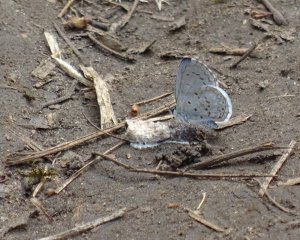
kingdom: Animalia
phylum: Arthropoda
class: Insecta
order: Lepidoptera
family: Lycaenidae
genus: Celastrina
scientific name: Celastrina
